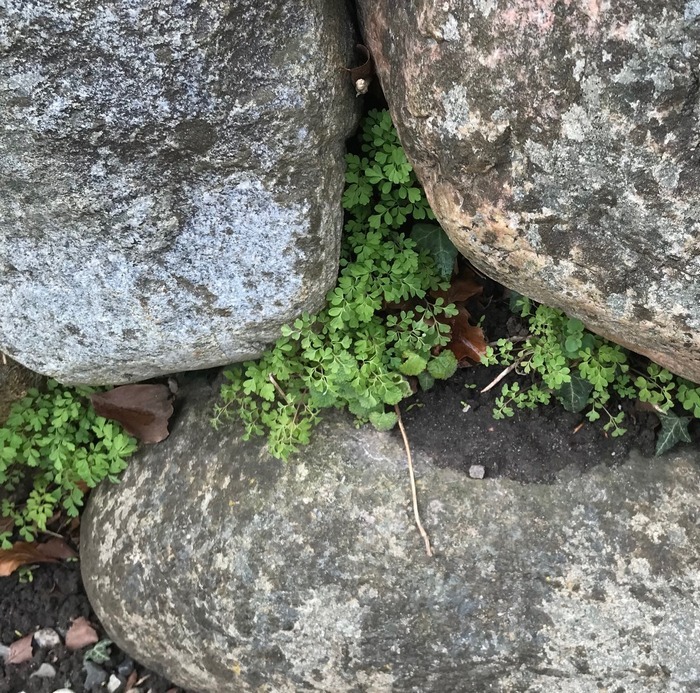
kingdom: Plantae
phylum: Tracheophyta
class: Magnoliopsida
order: Ranunculales
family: Papaveraceae
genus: Pseudofumaria
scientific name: Pseudofumaria lutea
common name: Gul lærkespore
